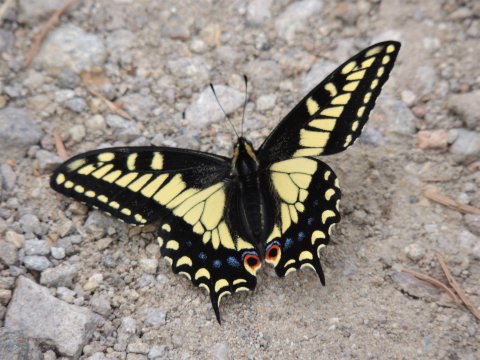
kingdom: Animalia
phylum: Arthropoda
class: Insecta
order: Lepidoptera
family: Papilionidae
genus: Papilio
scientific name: Papilio zelicaon
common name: Anise Swallowtail
